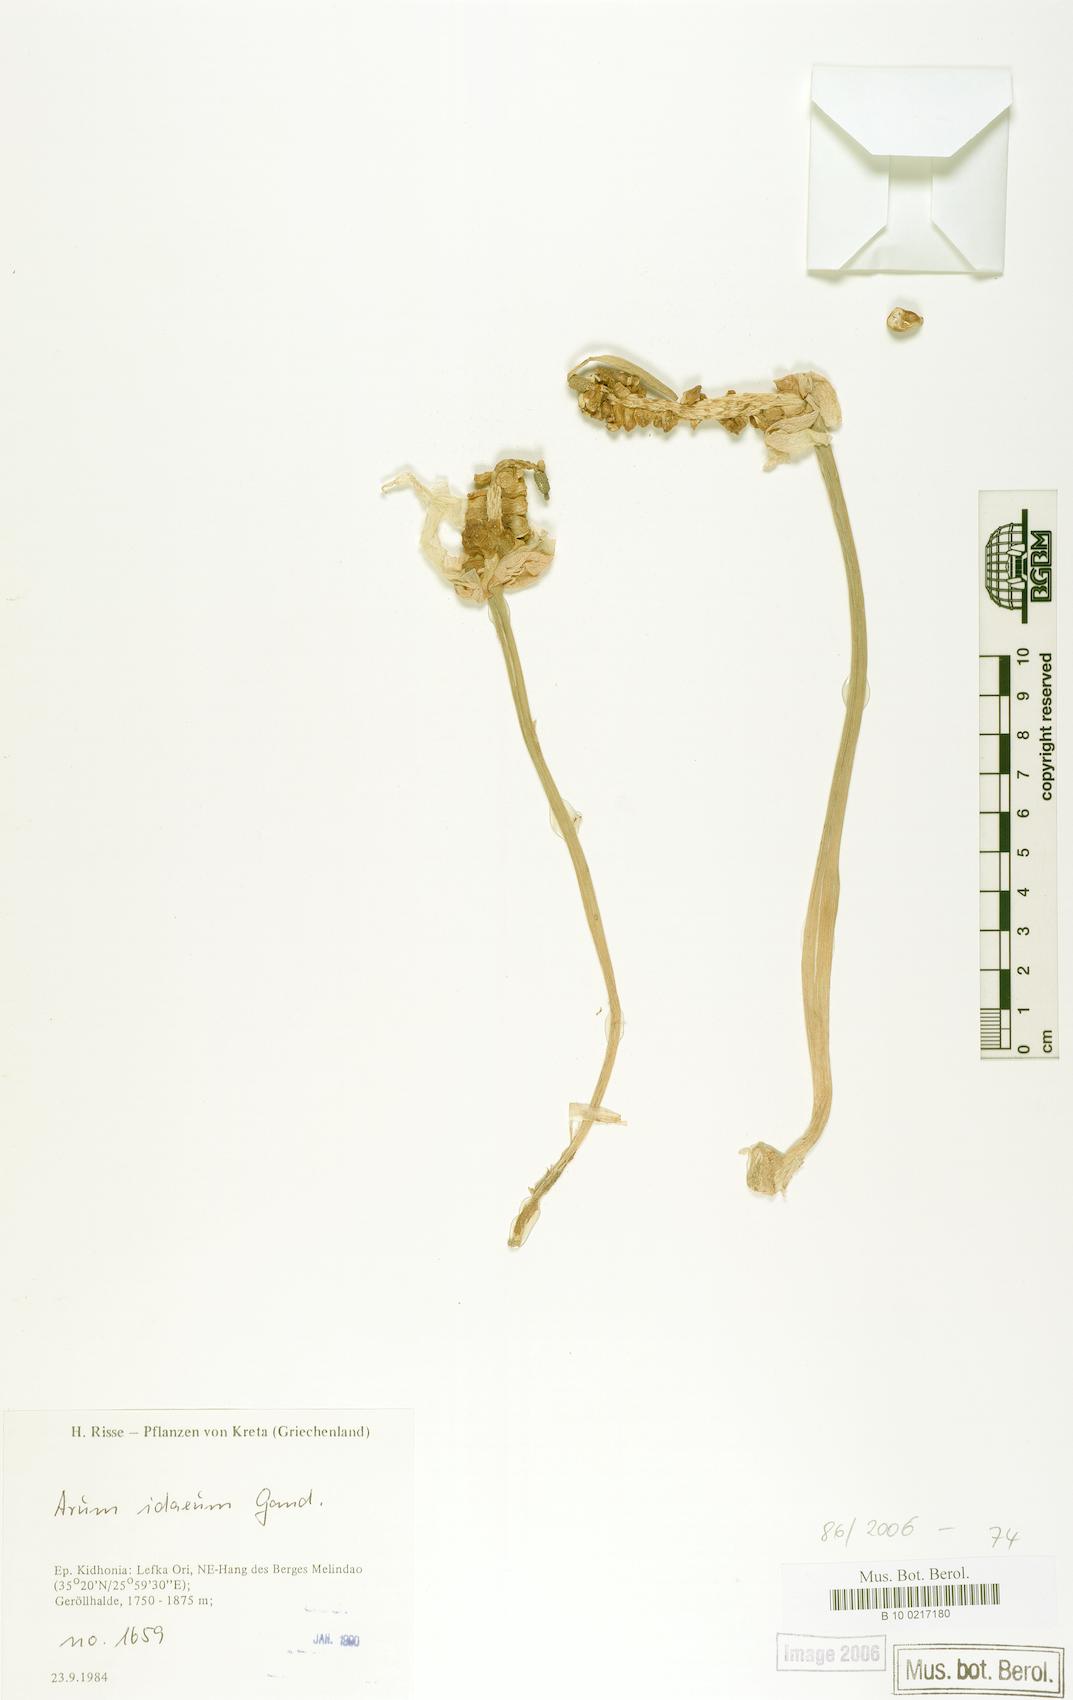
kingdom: Plantae
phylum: Tracheophyta
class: Liliopsida
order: Alismatales
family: Araceae
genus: Arum
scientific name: Arum idaeum
